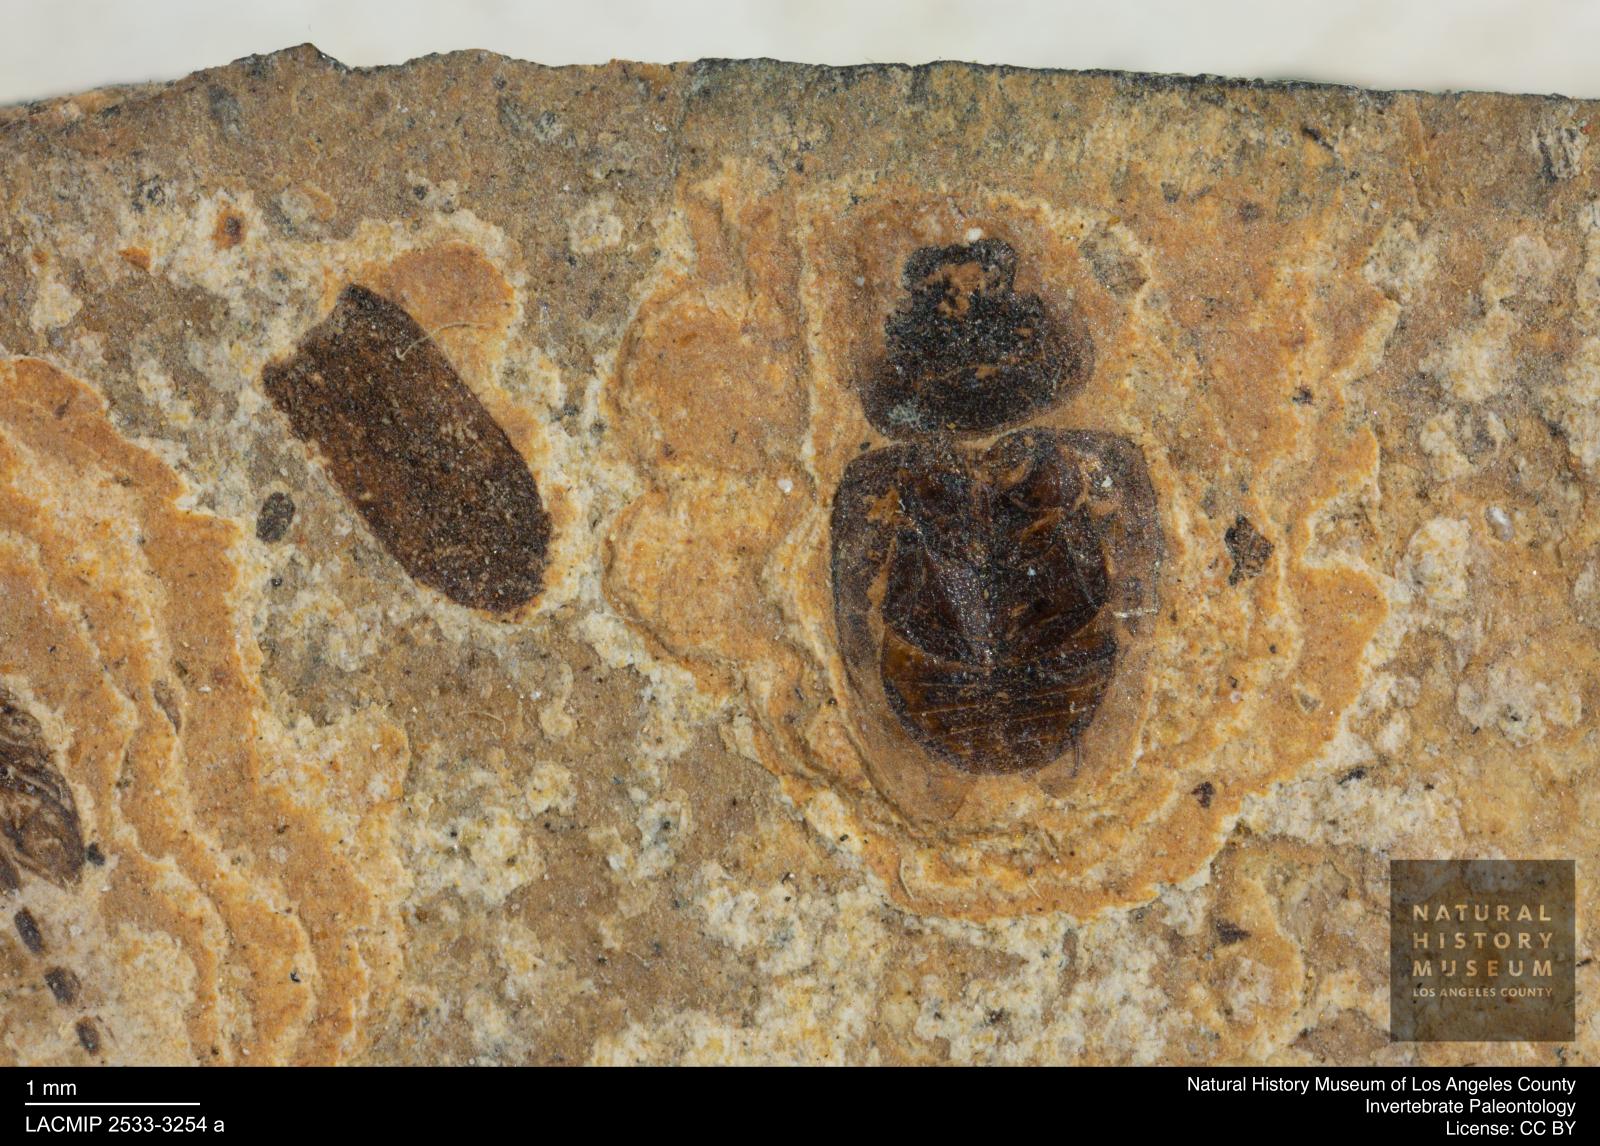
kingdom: Animalia
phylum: Arthropoda
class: Insecta
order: Coleoptera
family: Hydrophilidae
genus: Paracymus
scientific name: Paracymus excitatus
